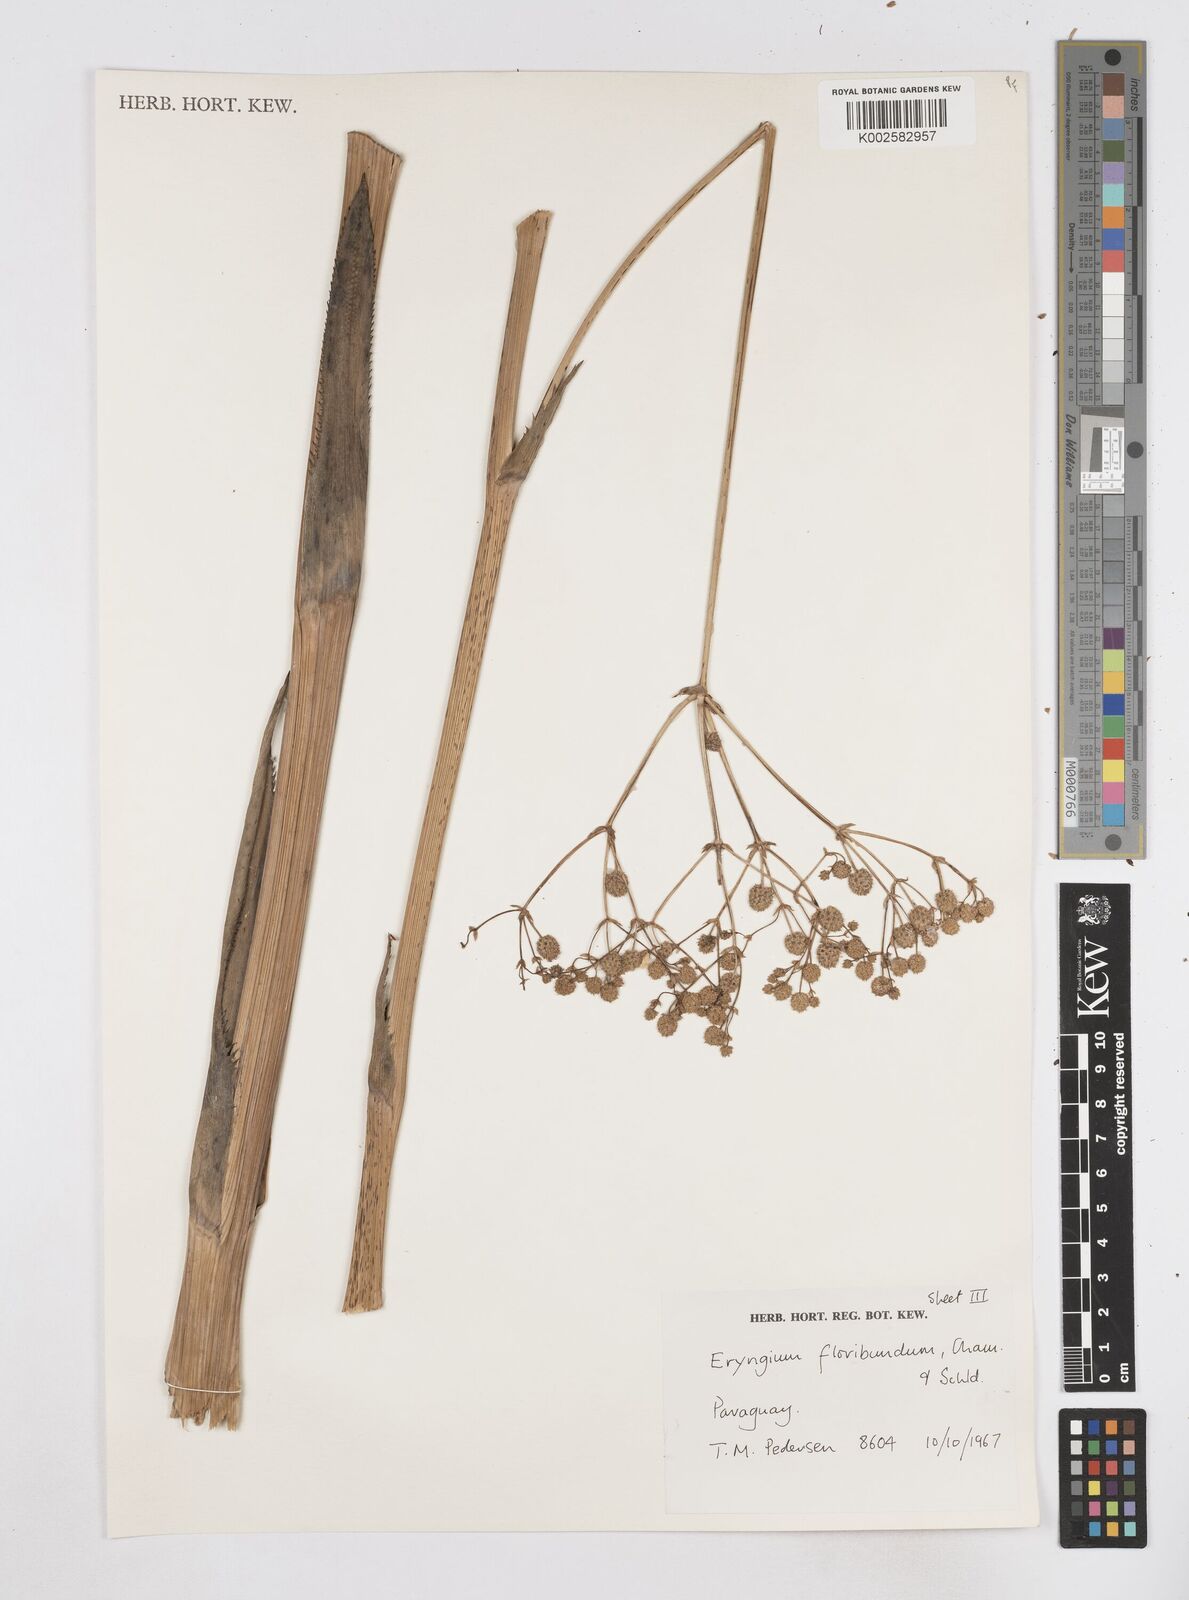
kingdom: Plantae
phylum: Tracheophyta
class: Magnoliopsida
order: Apiales
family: Apiaceae
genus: Eryngium
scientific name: Eryngium floribundum
